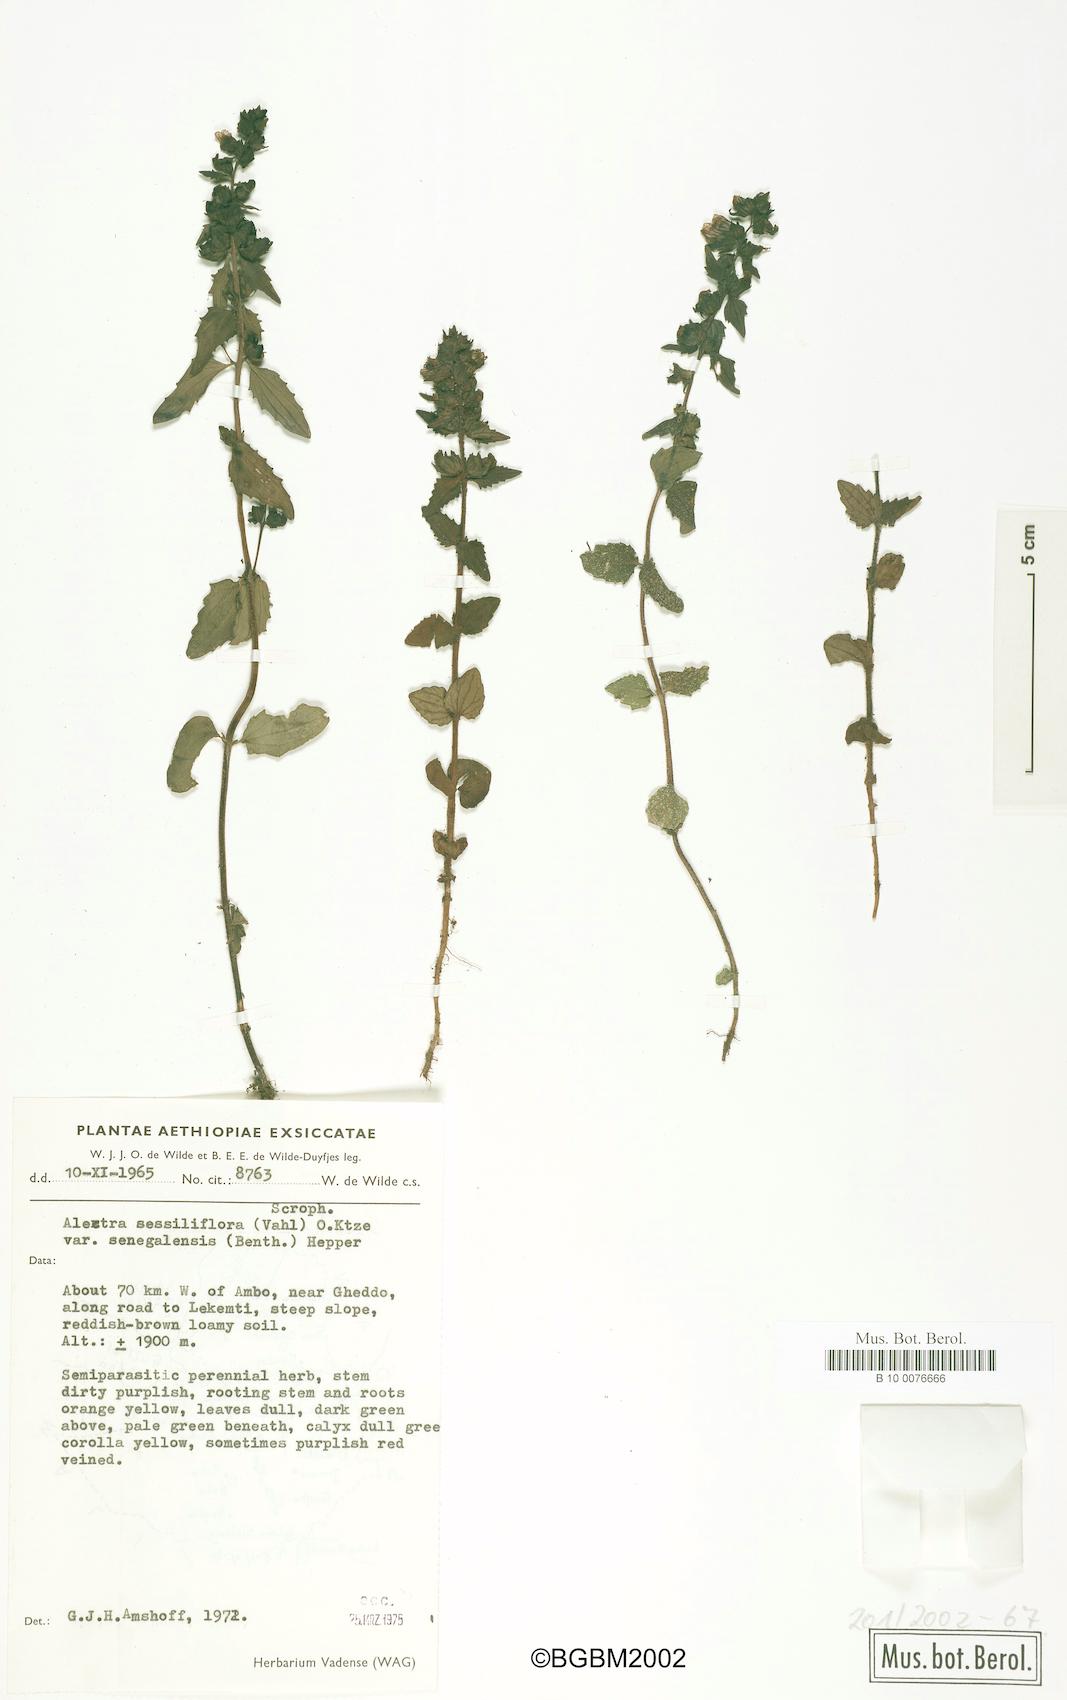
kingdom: Plantae
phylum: Tracheophyta
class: Magnoliopsida
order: Lamiales
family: Orobanchaceae
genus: Alectra
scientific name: Alectra sessiliflora
